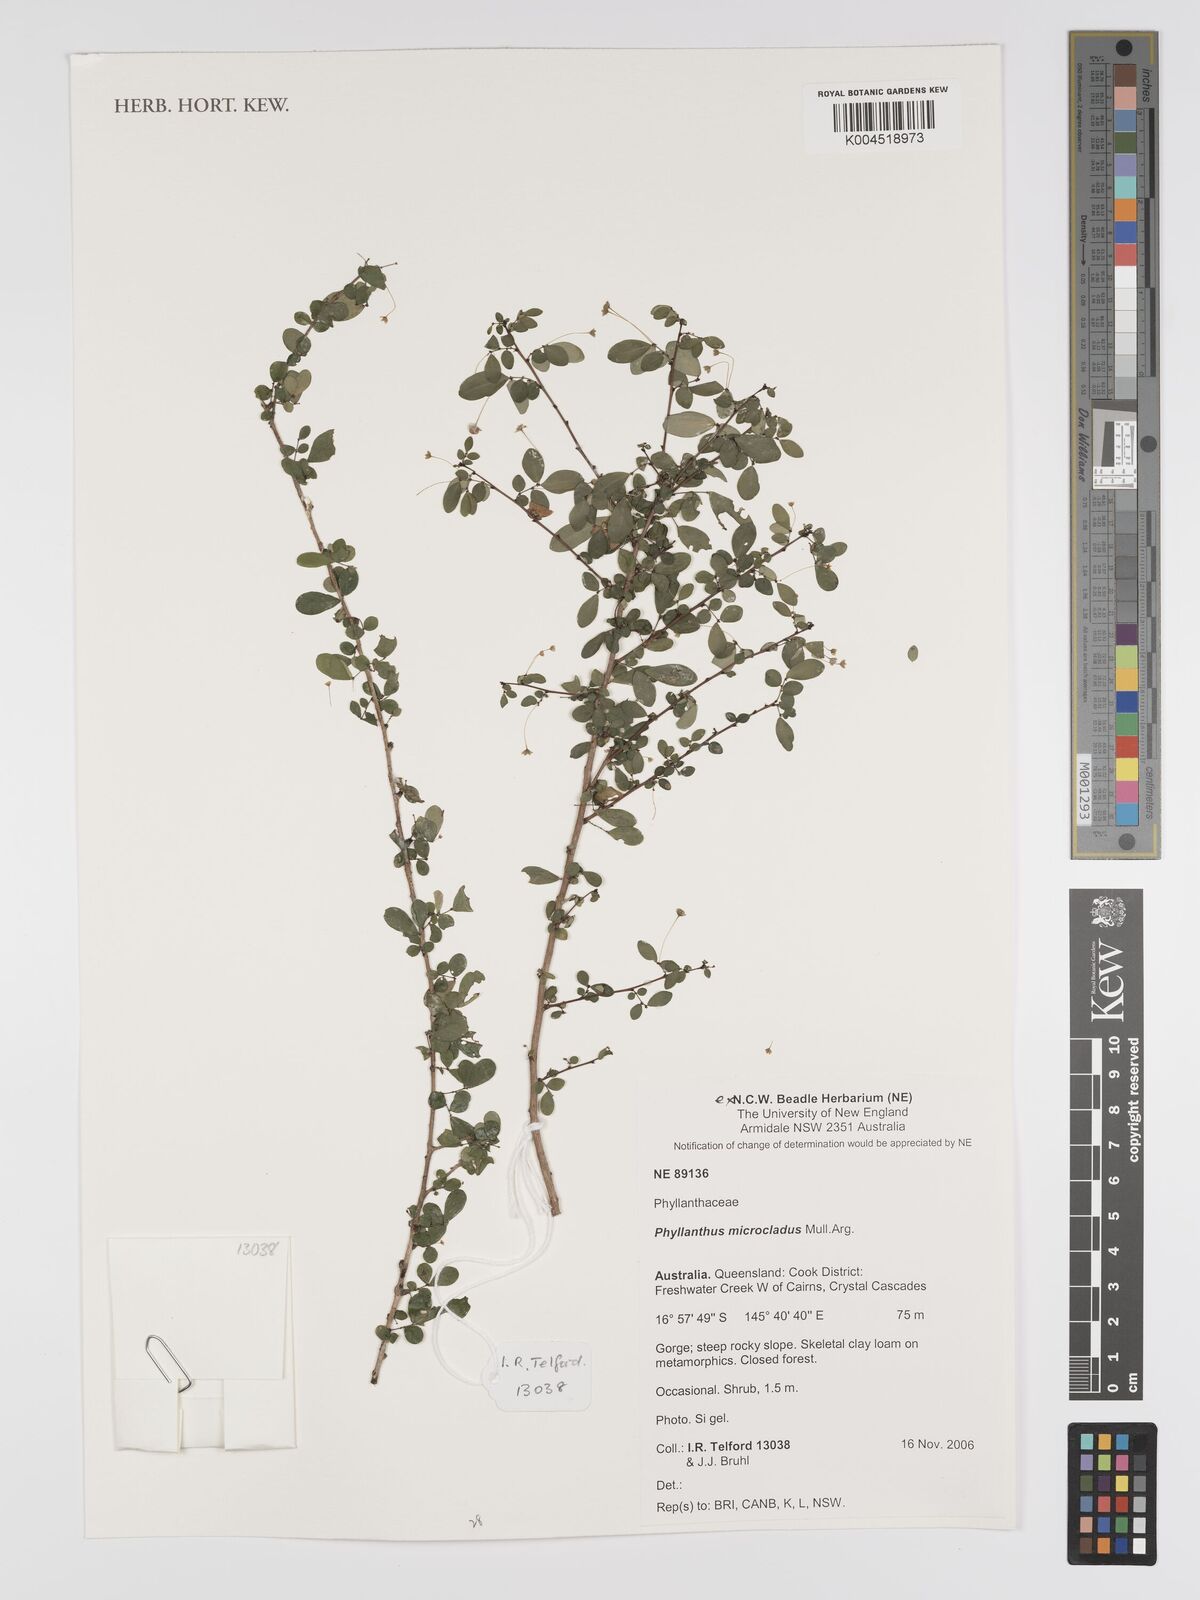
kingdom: Plantae
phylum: Tracheophyta
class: Magnoliopsida
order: Malpighiales
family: Phyllanthaceae
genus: Phyllanthus
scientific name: Phyllanthus microcladus
